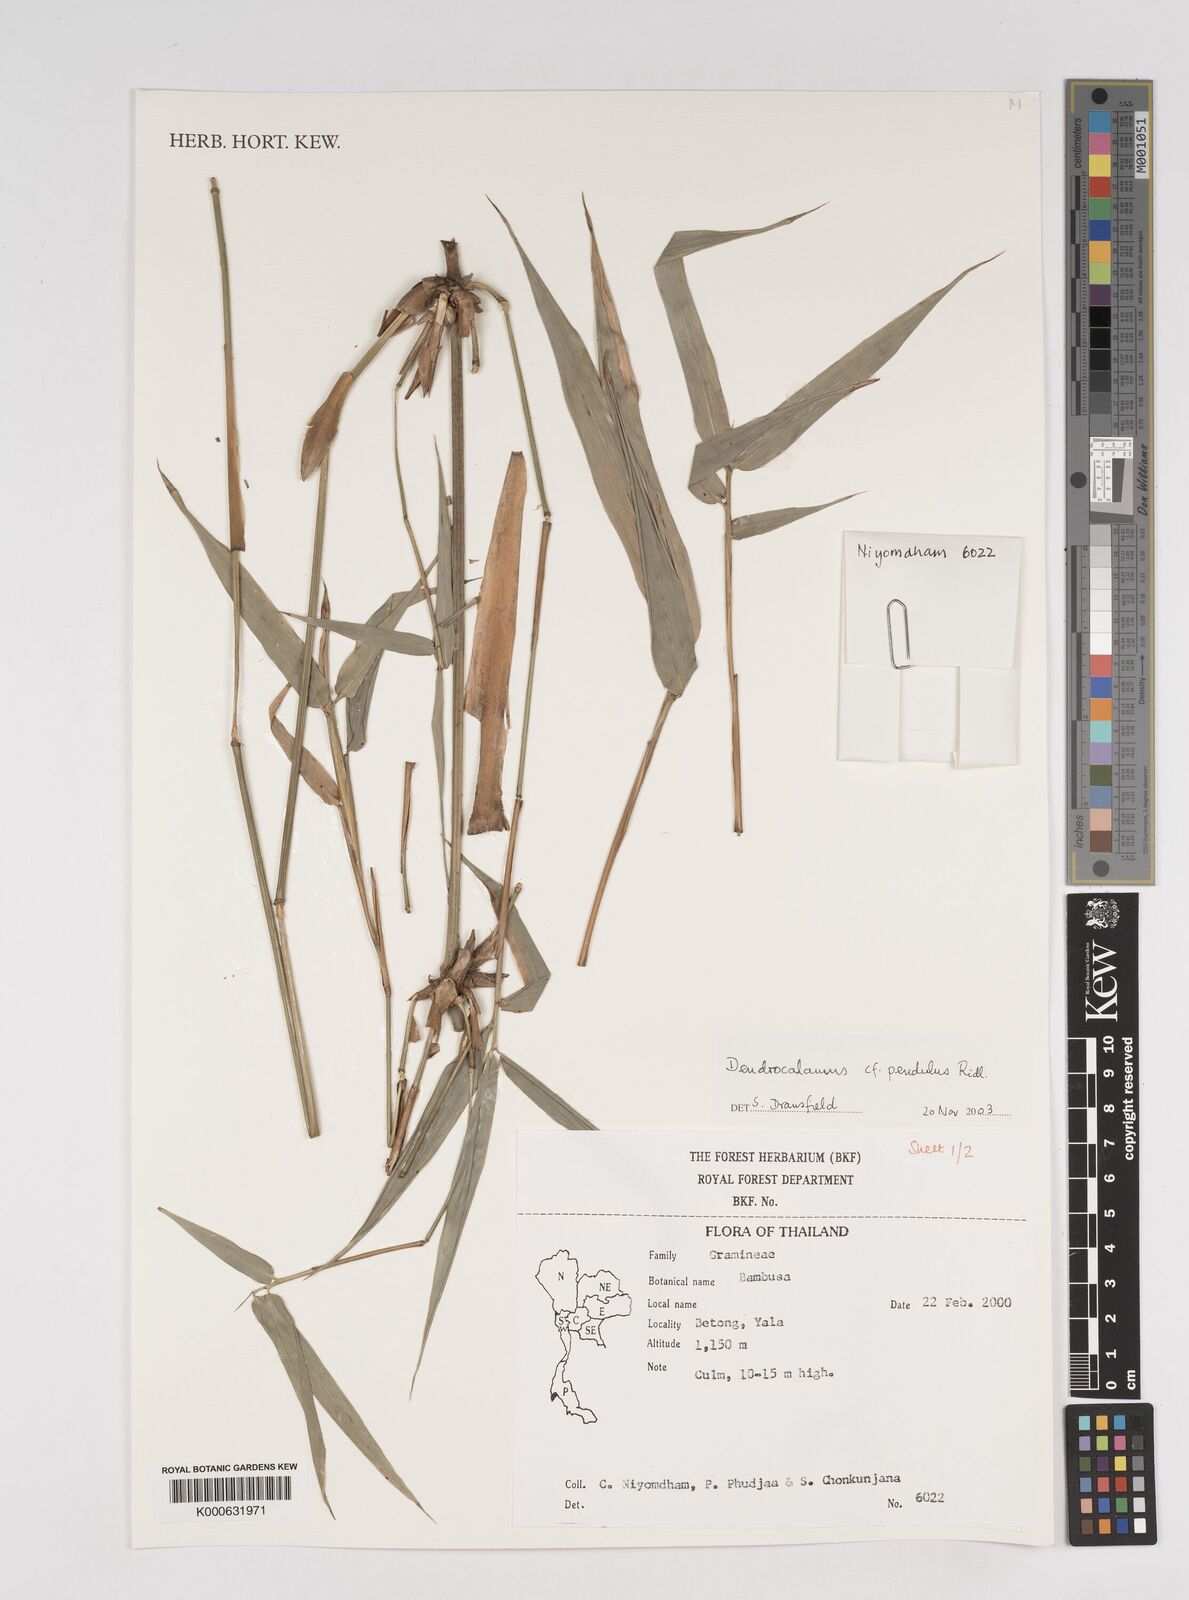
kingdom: Plantae
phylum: Tracheophyta
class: Liliopsida
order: Poales
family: Poaceae
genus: Dendrocalamus
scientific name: Dendrocalamus pendulus
